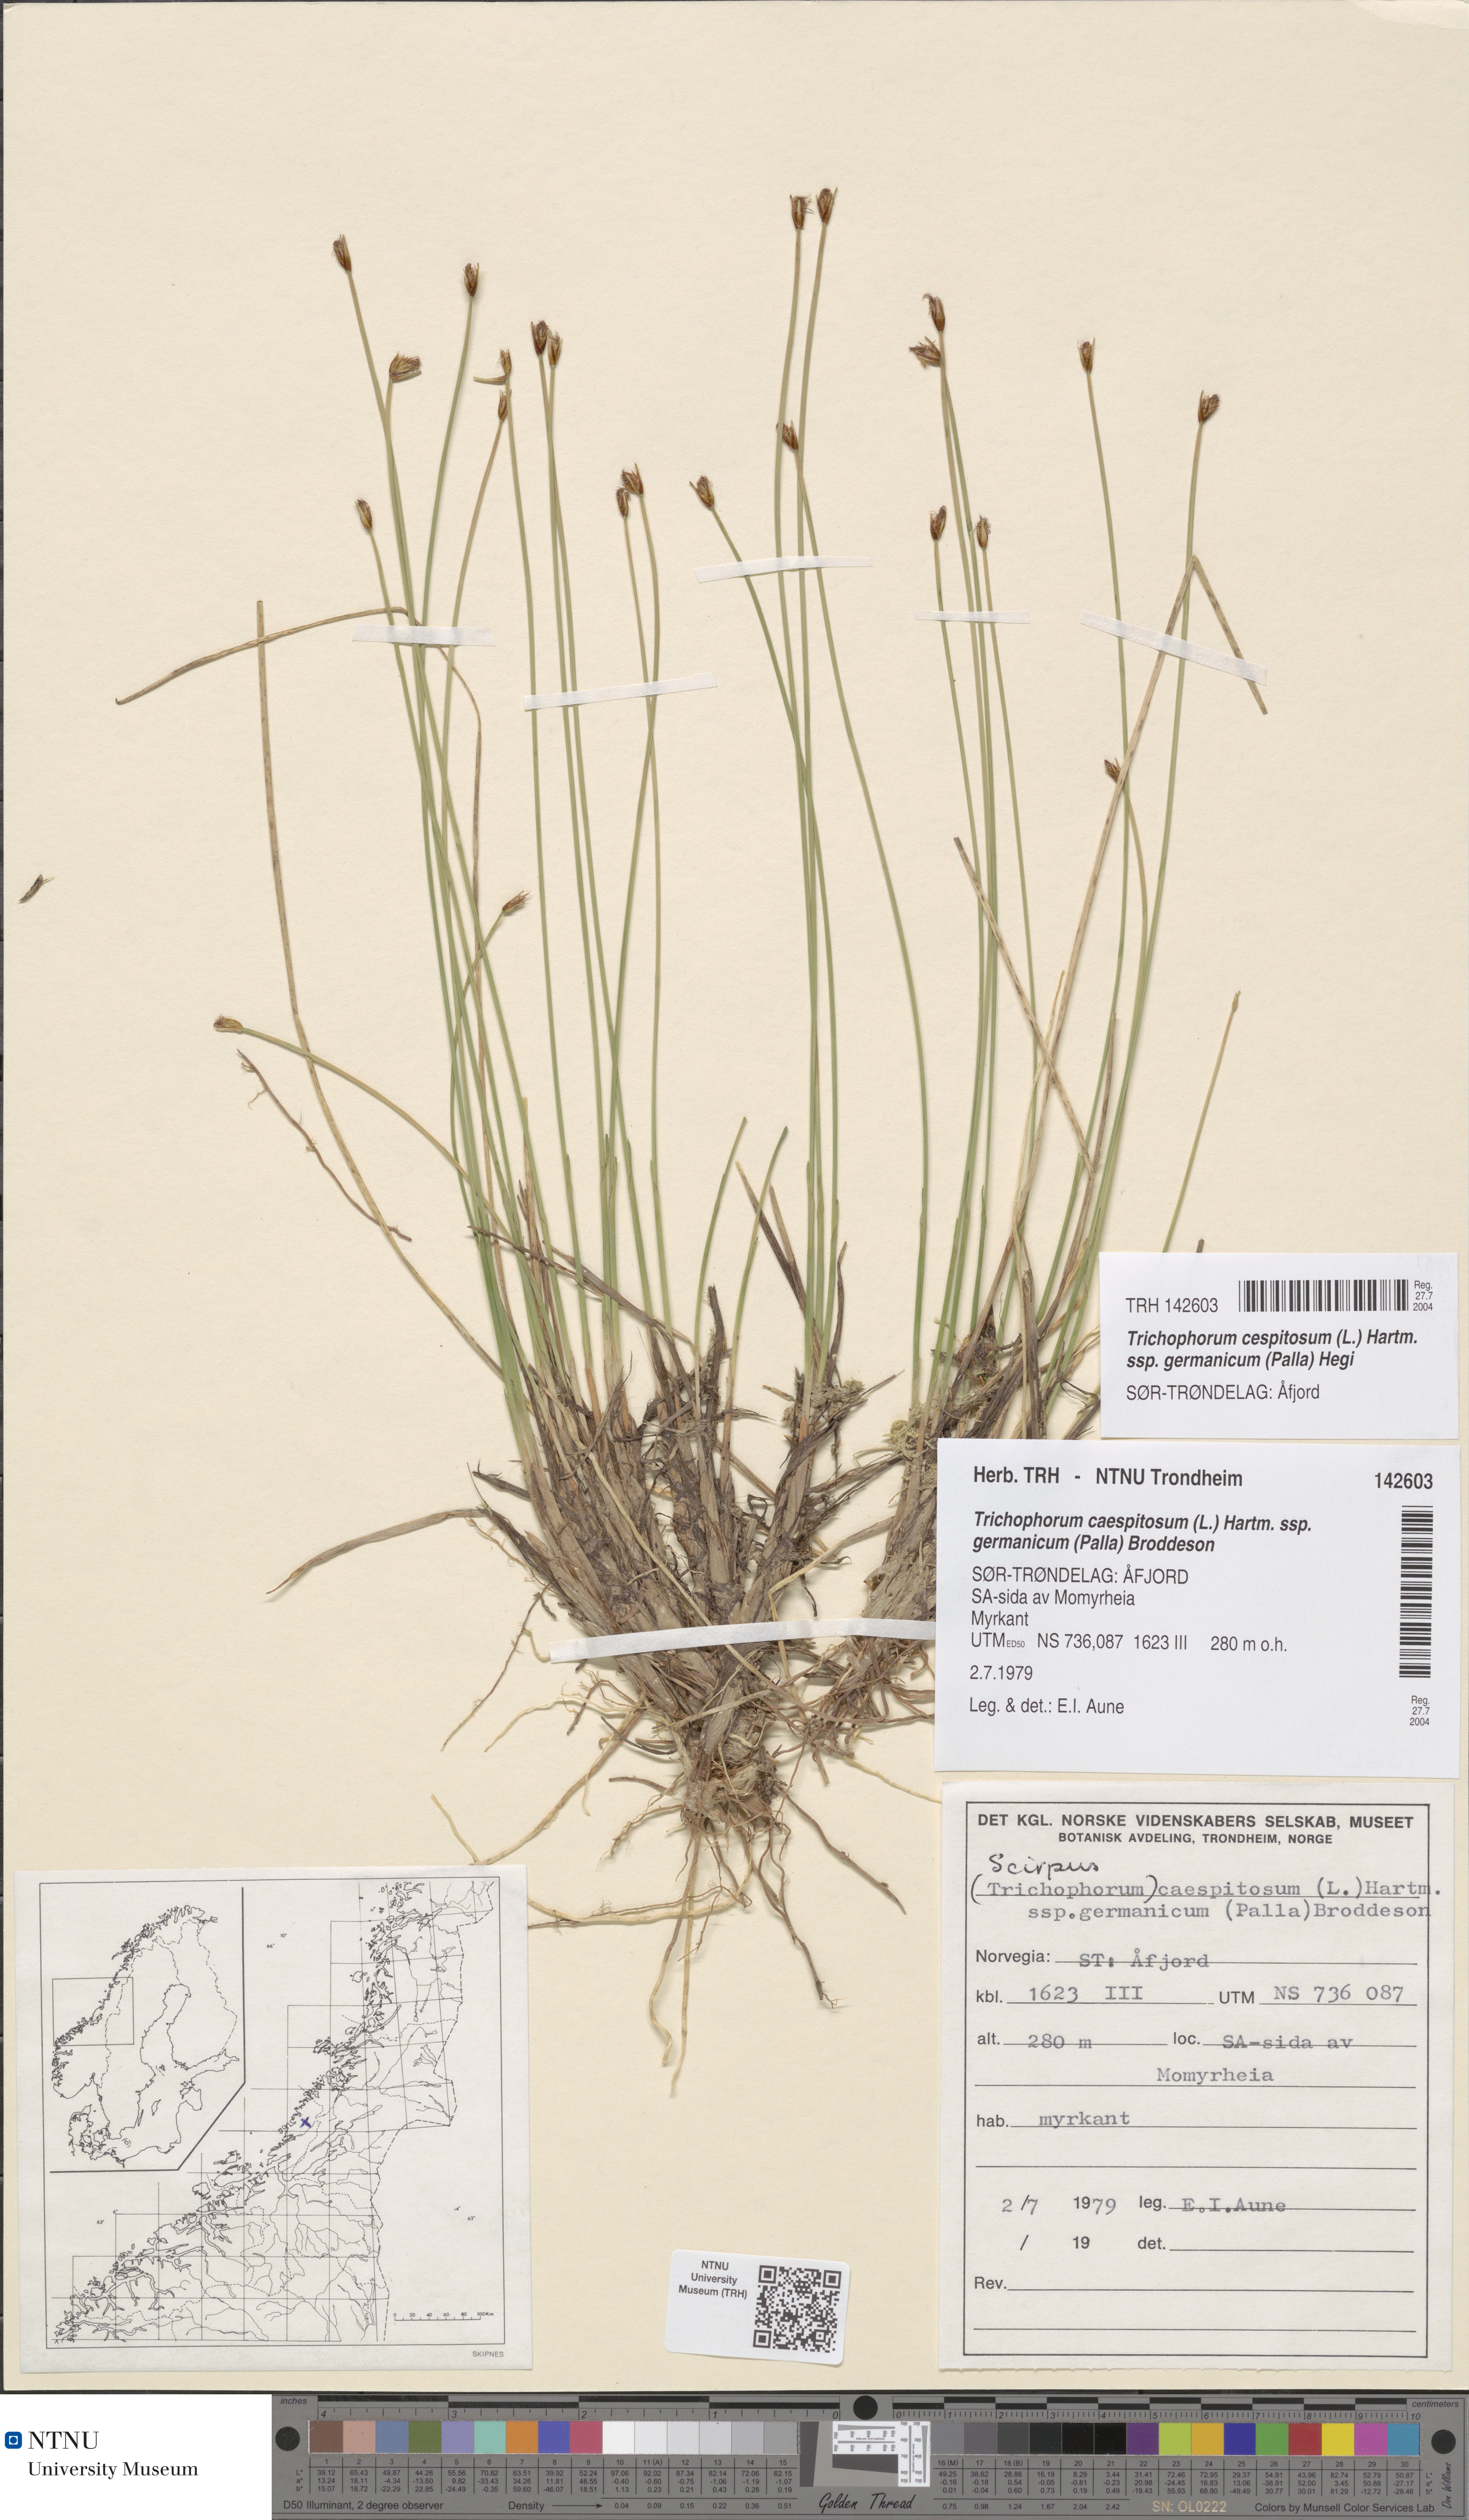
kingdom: Plantae
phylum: Tracheophyta
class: Liliopsida
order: Poales
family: Cyperaceae
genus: Trichophorum
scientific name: Trichophorum cespitosum
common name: Cespitose bulrush
